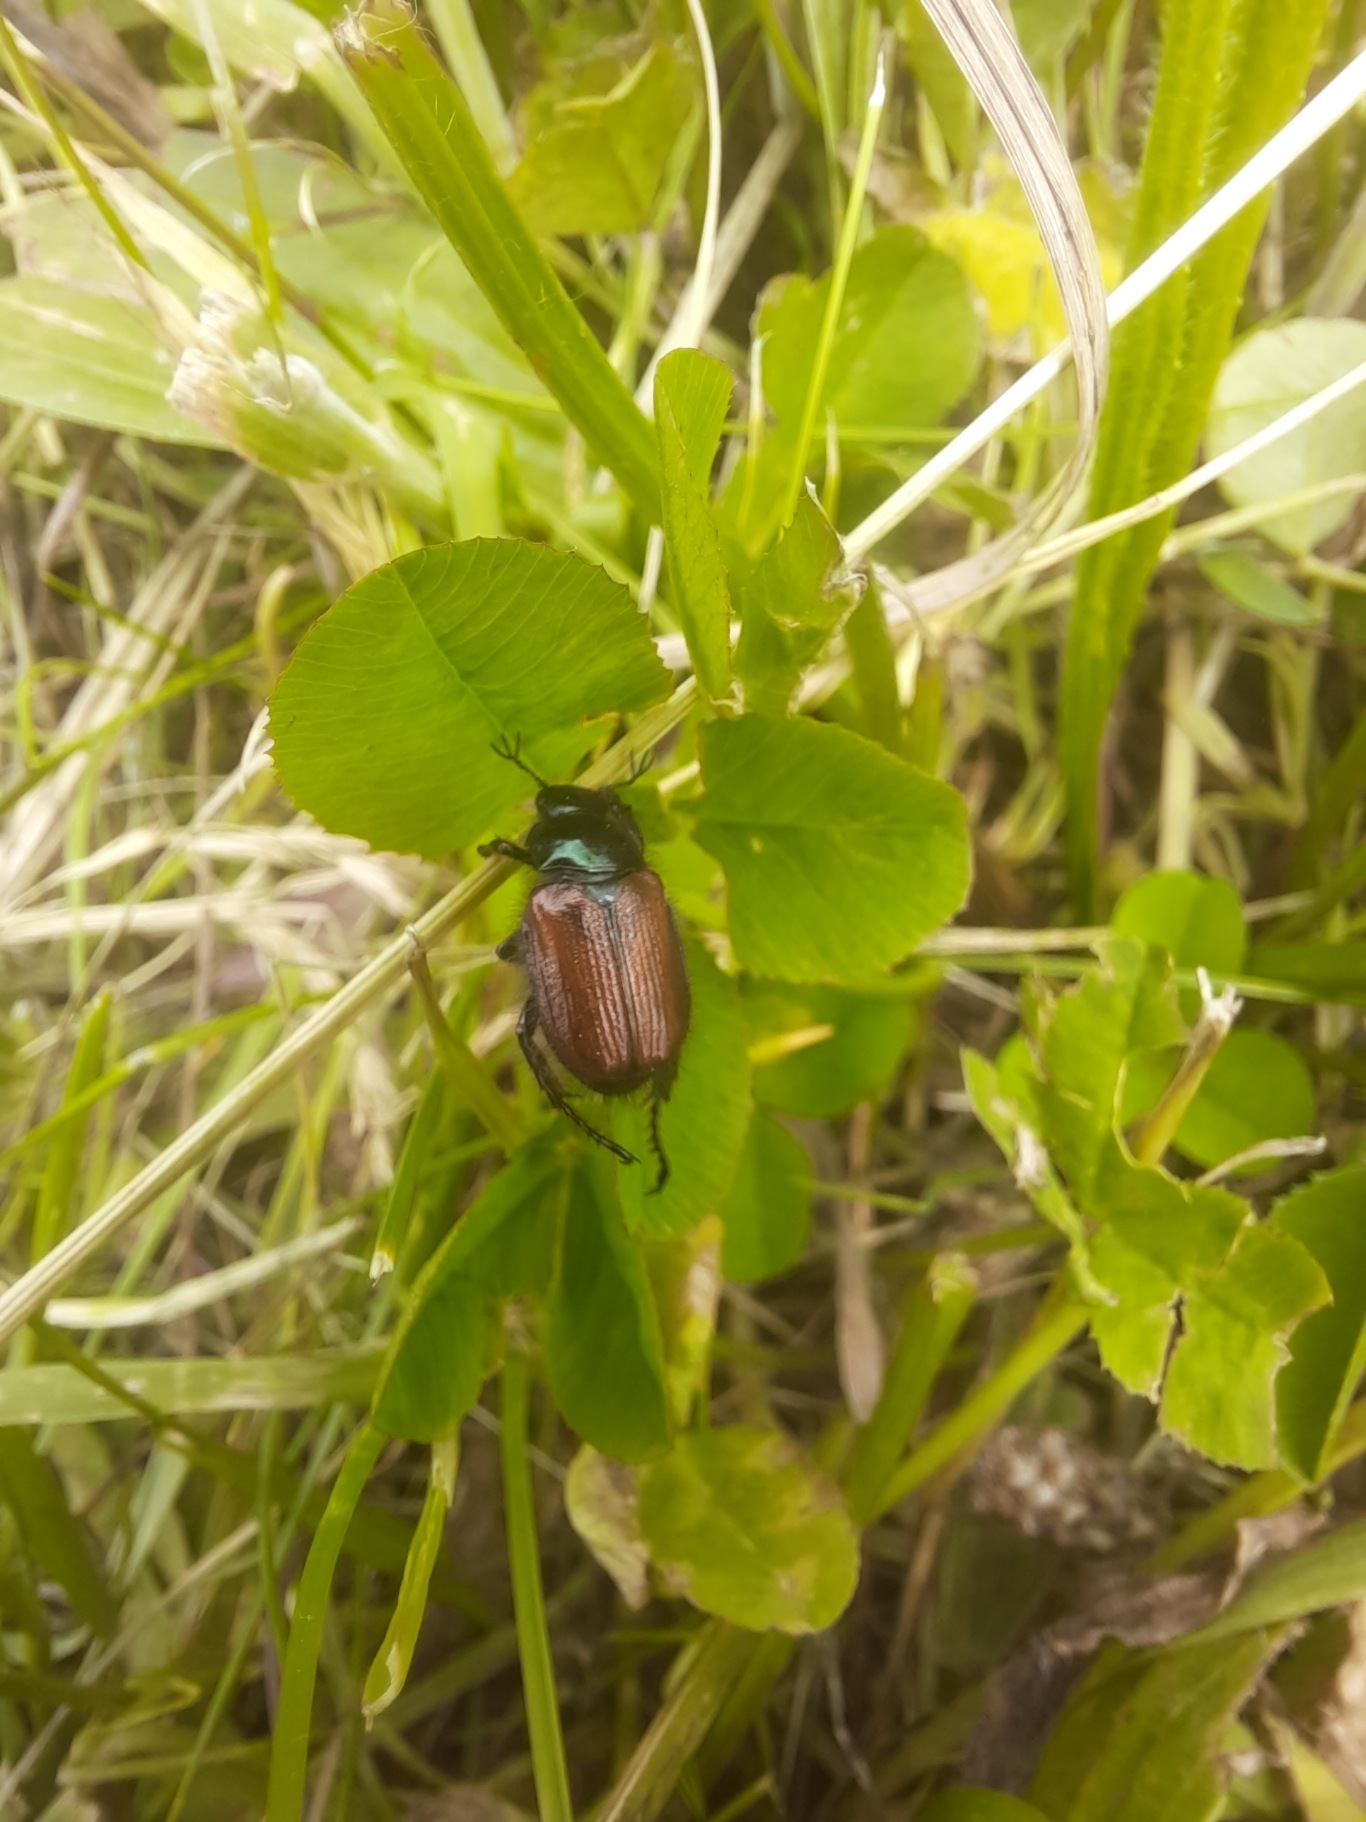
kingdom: Animalia
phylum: Arthropoda
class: Insecta
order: Coleoptera
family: Scarabaeidae
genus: Phyllopertha
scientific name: Phyllopertha horticola
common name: Gåsebille
